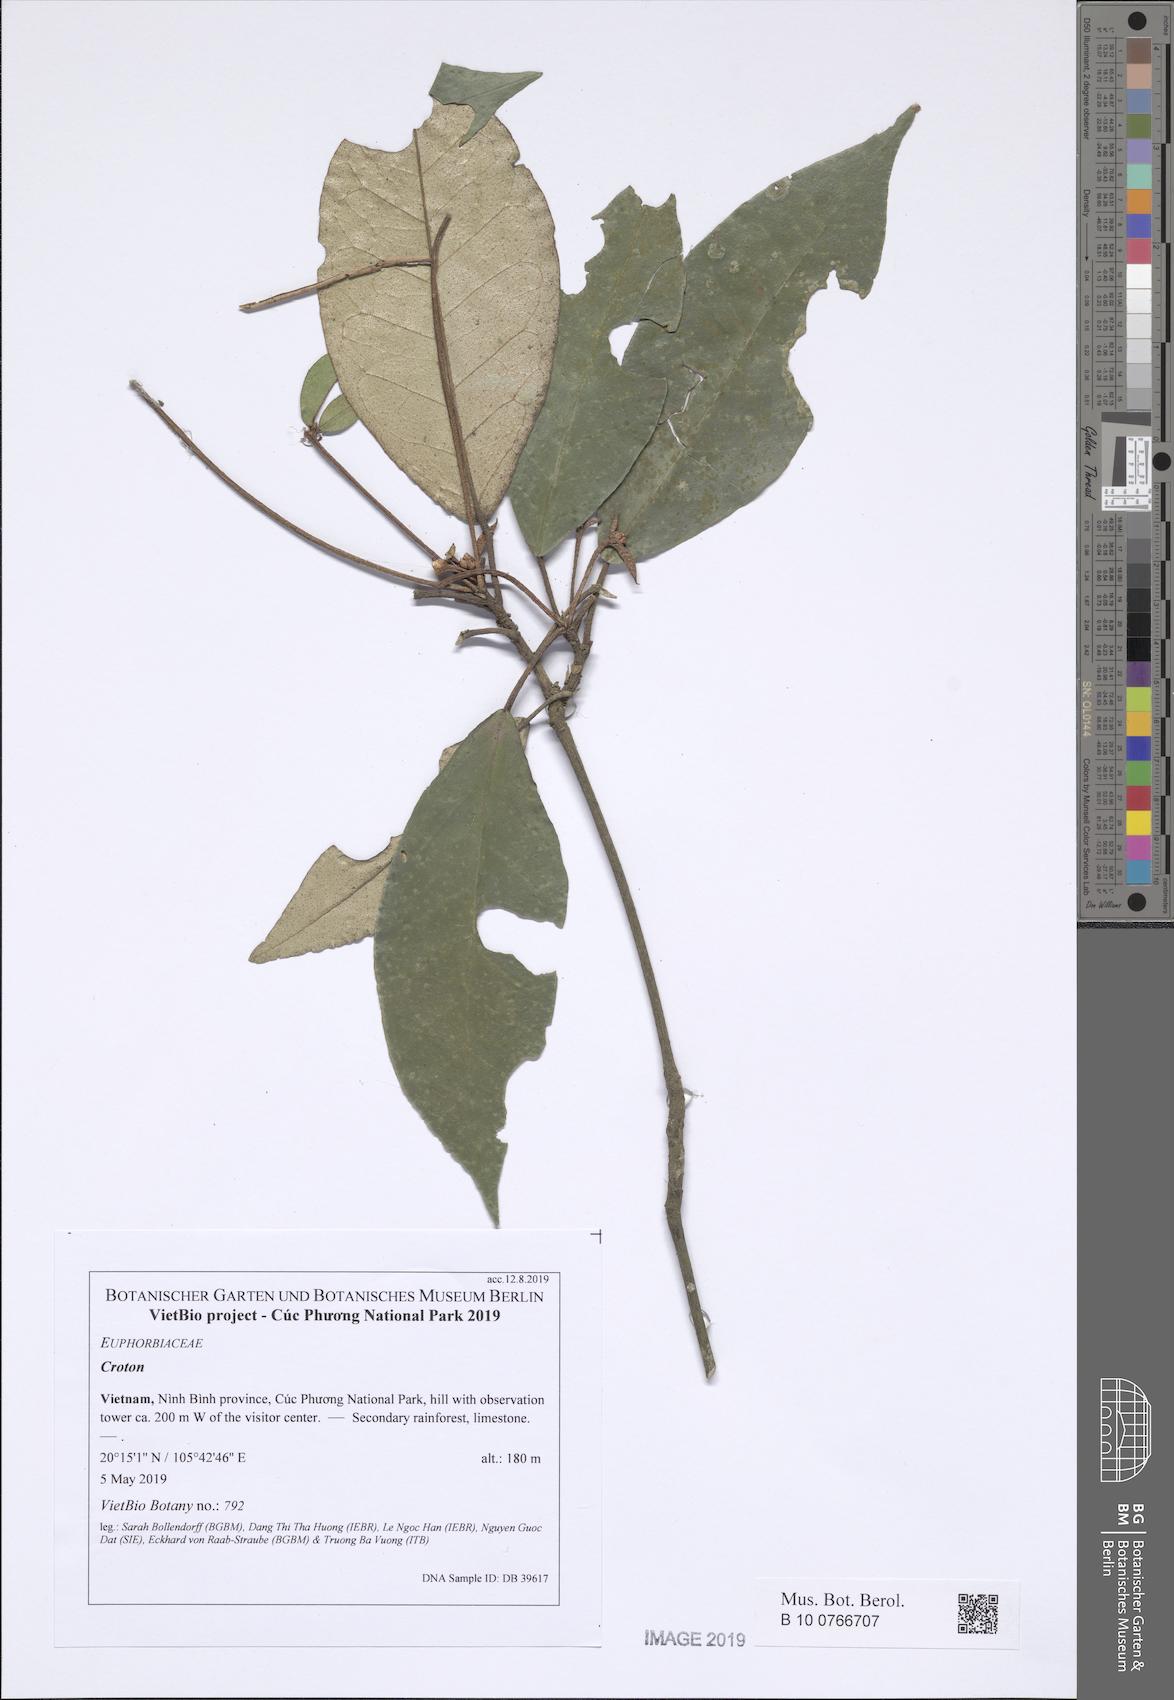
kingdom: Plantae
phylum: Tracheophyta
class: Magnoliopsida
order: Malpighiales
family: Euphorbiaceae
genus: Croton
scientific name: Croton cascarilloides
